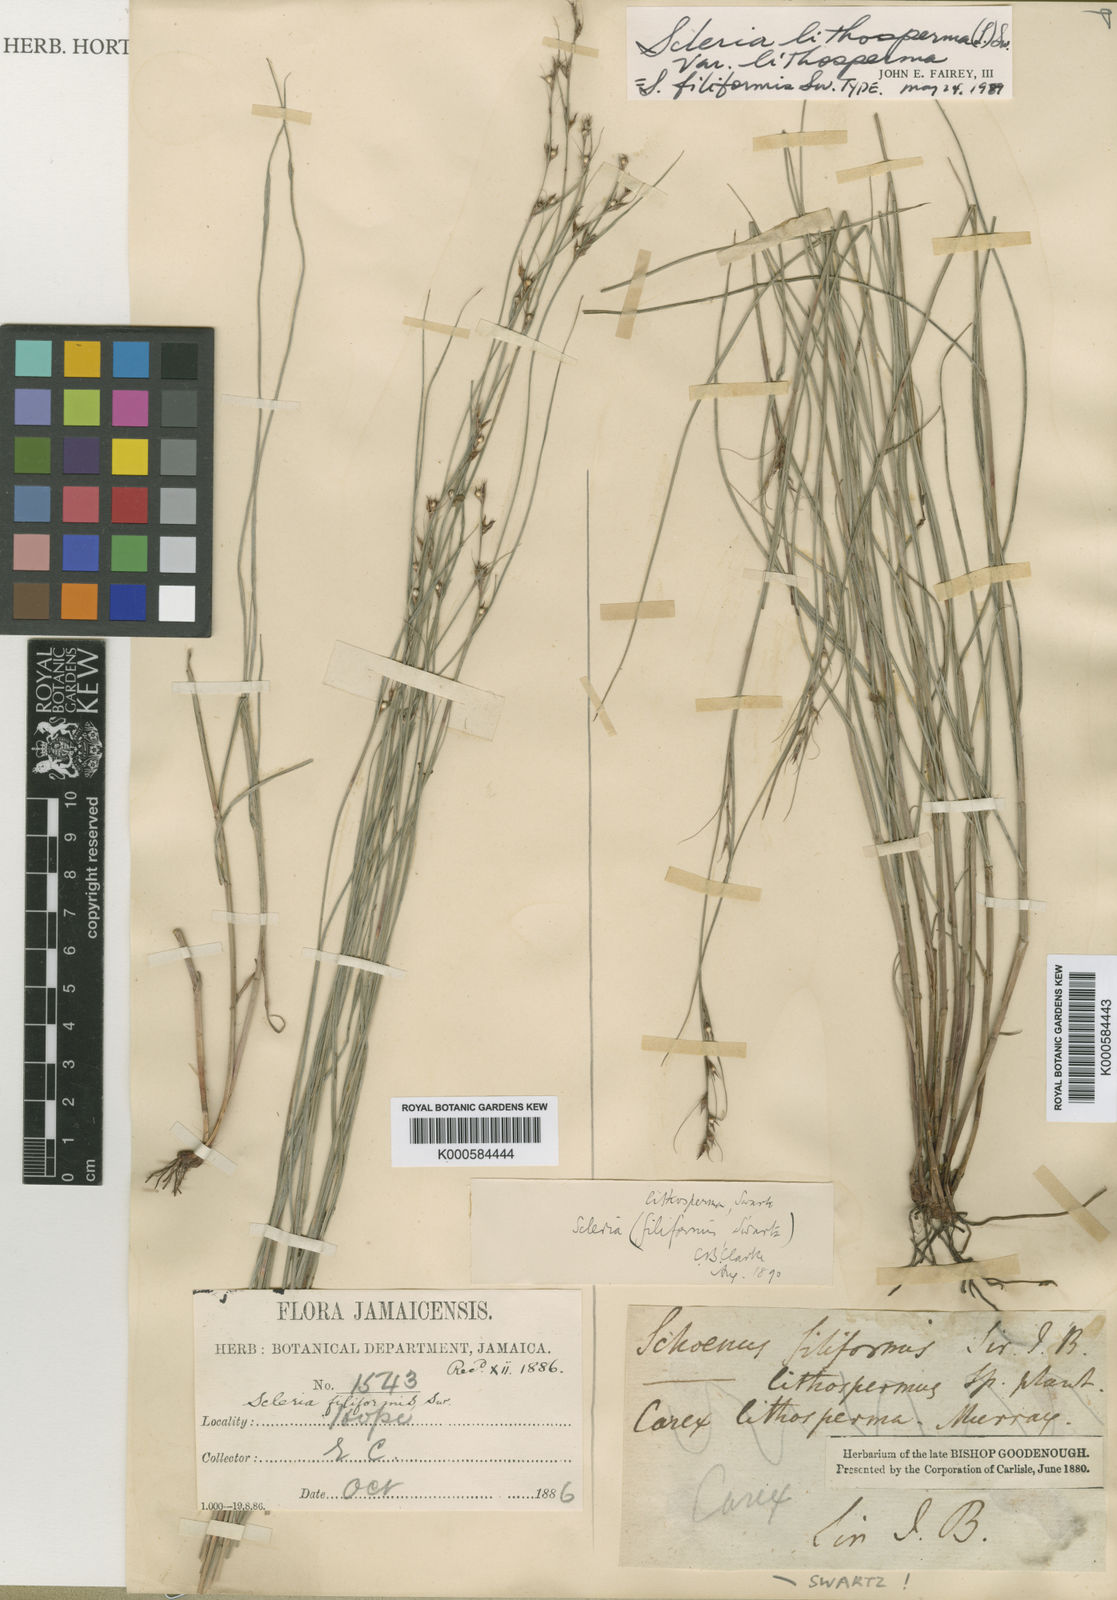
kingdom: Plantae
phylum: Tracheophyta
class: Liliopsida
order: Poales
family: Cyperaceae
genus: Scleria
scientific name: Scleria lithosperma
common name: Florida keys nut-rush
